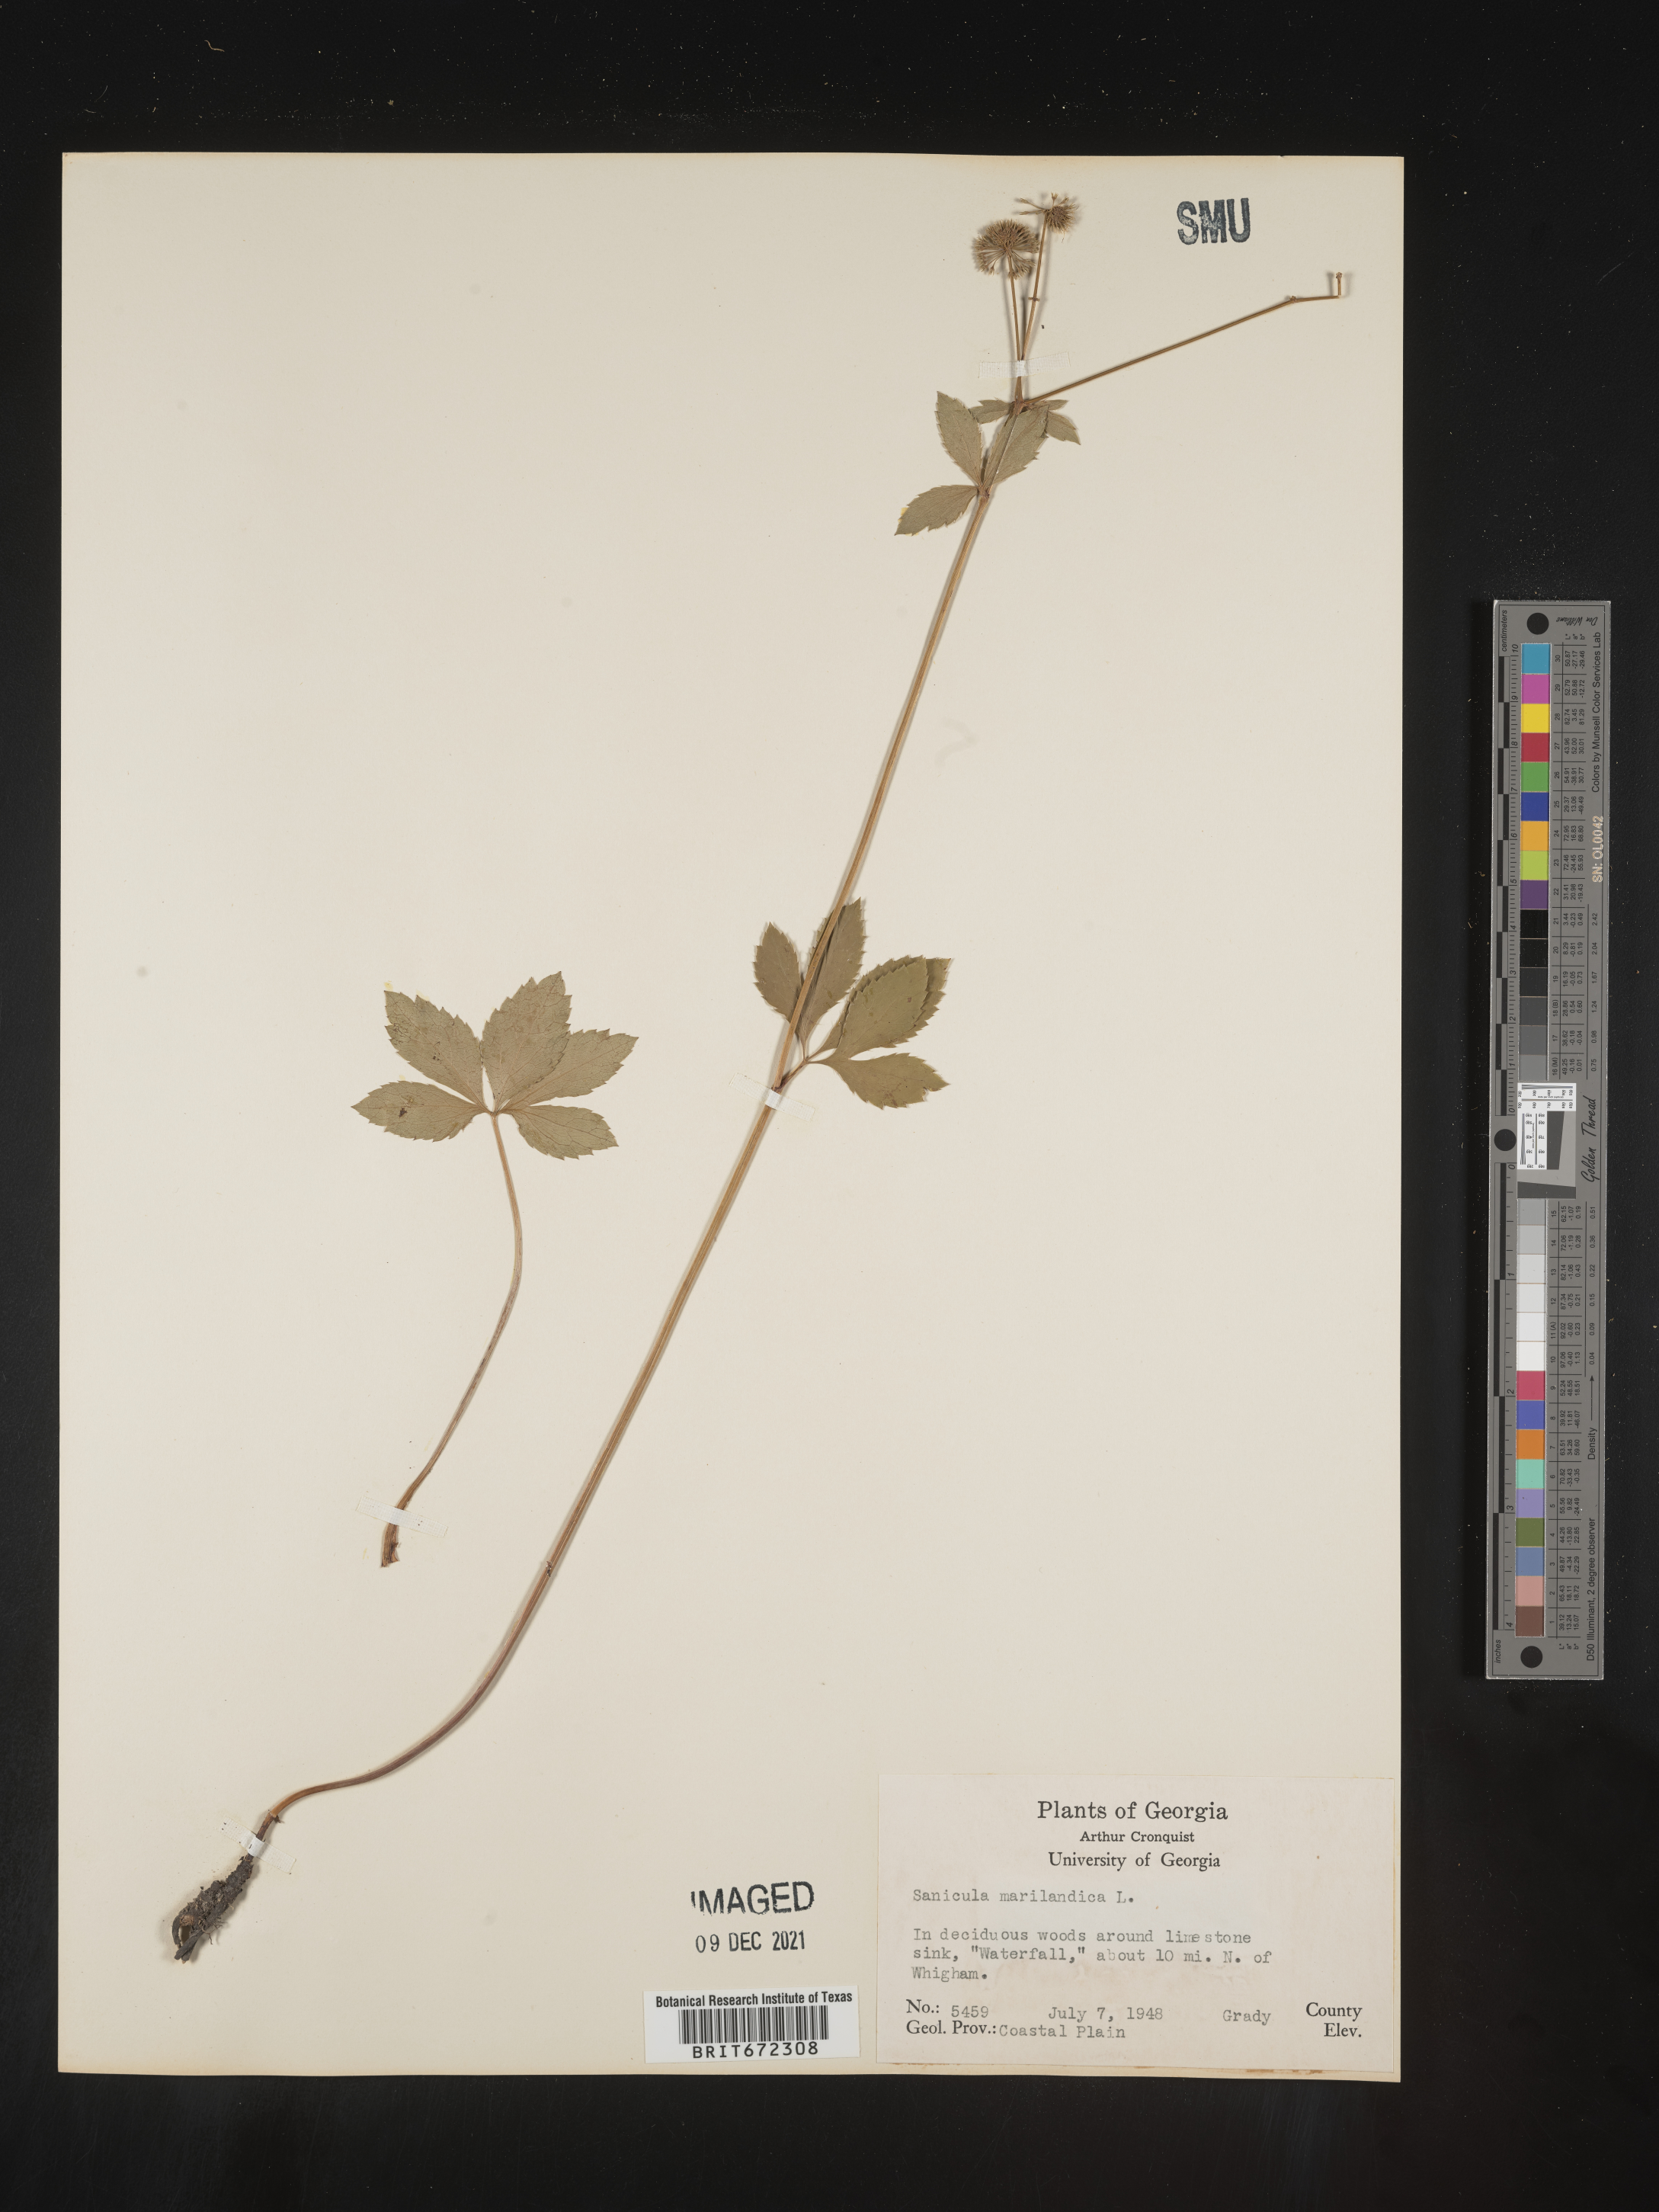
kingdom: Plantae
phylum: Tracheophyta
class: Magnoliopsida
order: Apiales
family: Apiaceae
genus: Sanicula
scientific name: Sanicula marilandica
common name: Black snakeroot
